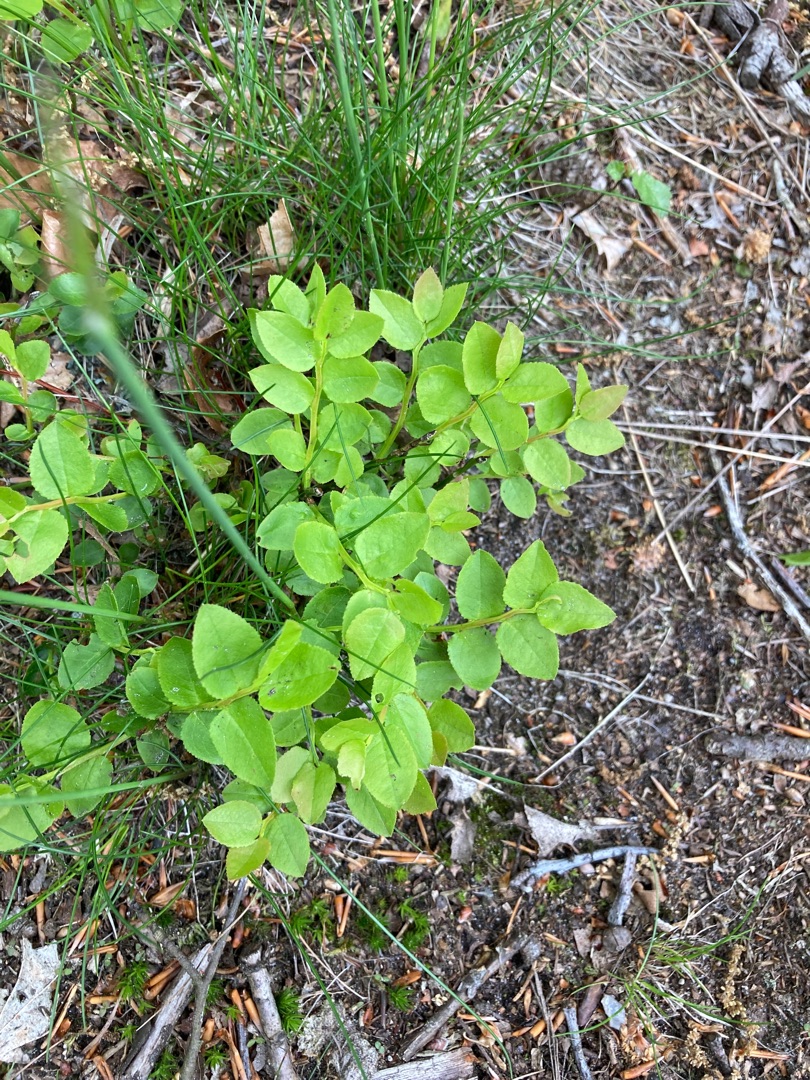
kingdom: Plantae
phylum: Tracheophyta
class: Magnoliopsida
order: Ericales
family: Ericaceae
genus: Vaccinium
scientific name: Vaccinium myrtillus
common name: Blåbær
